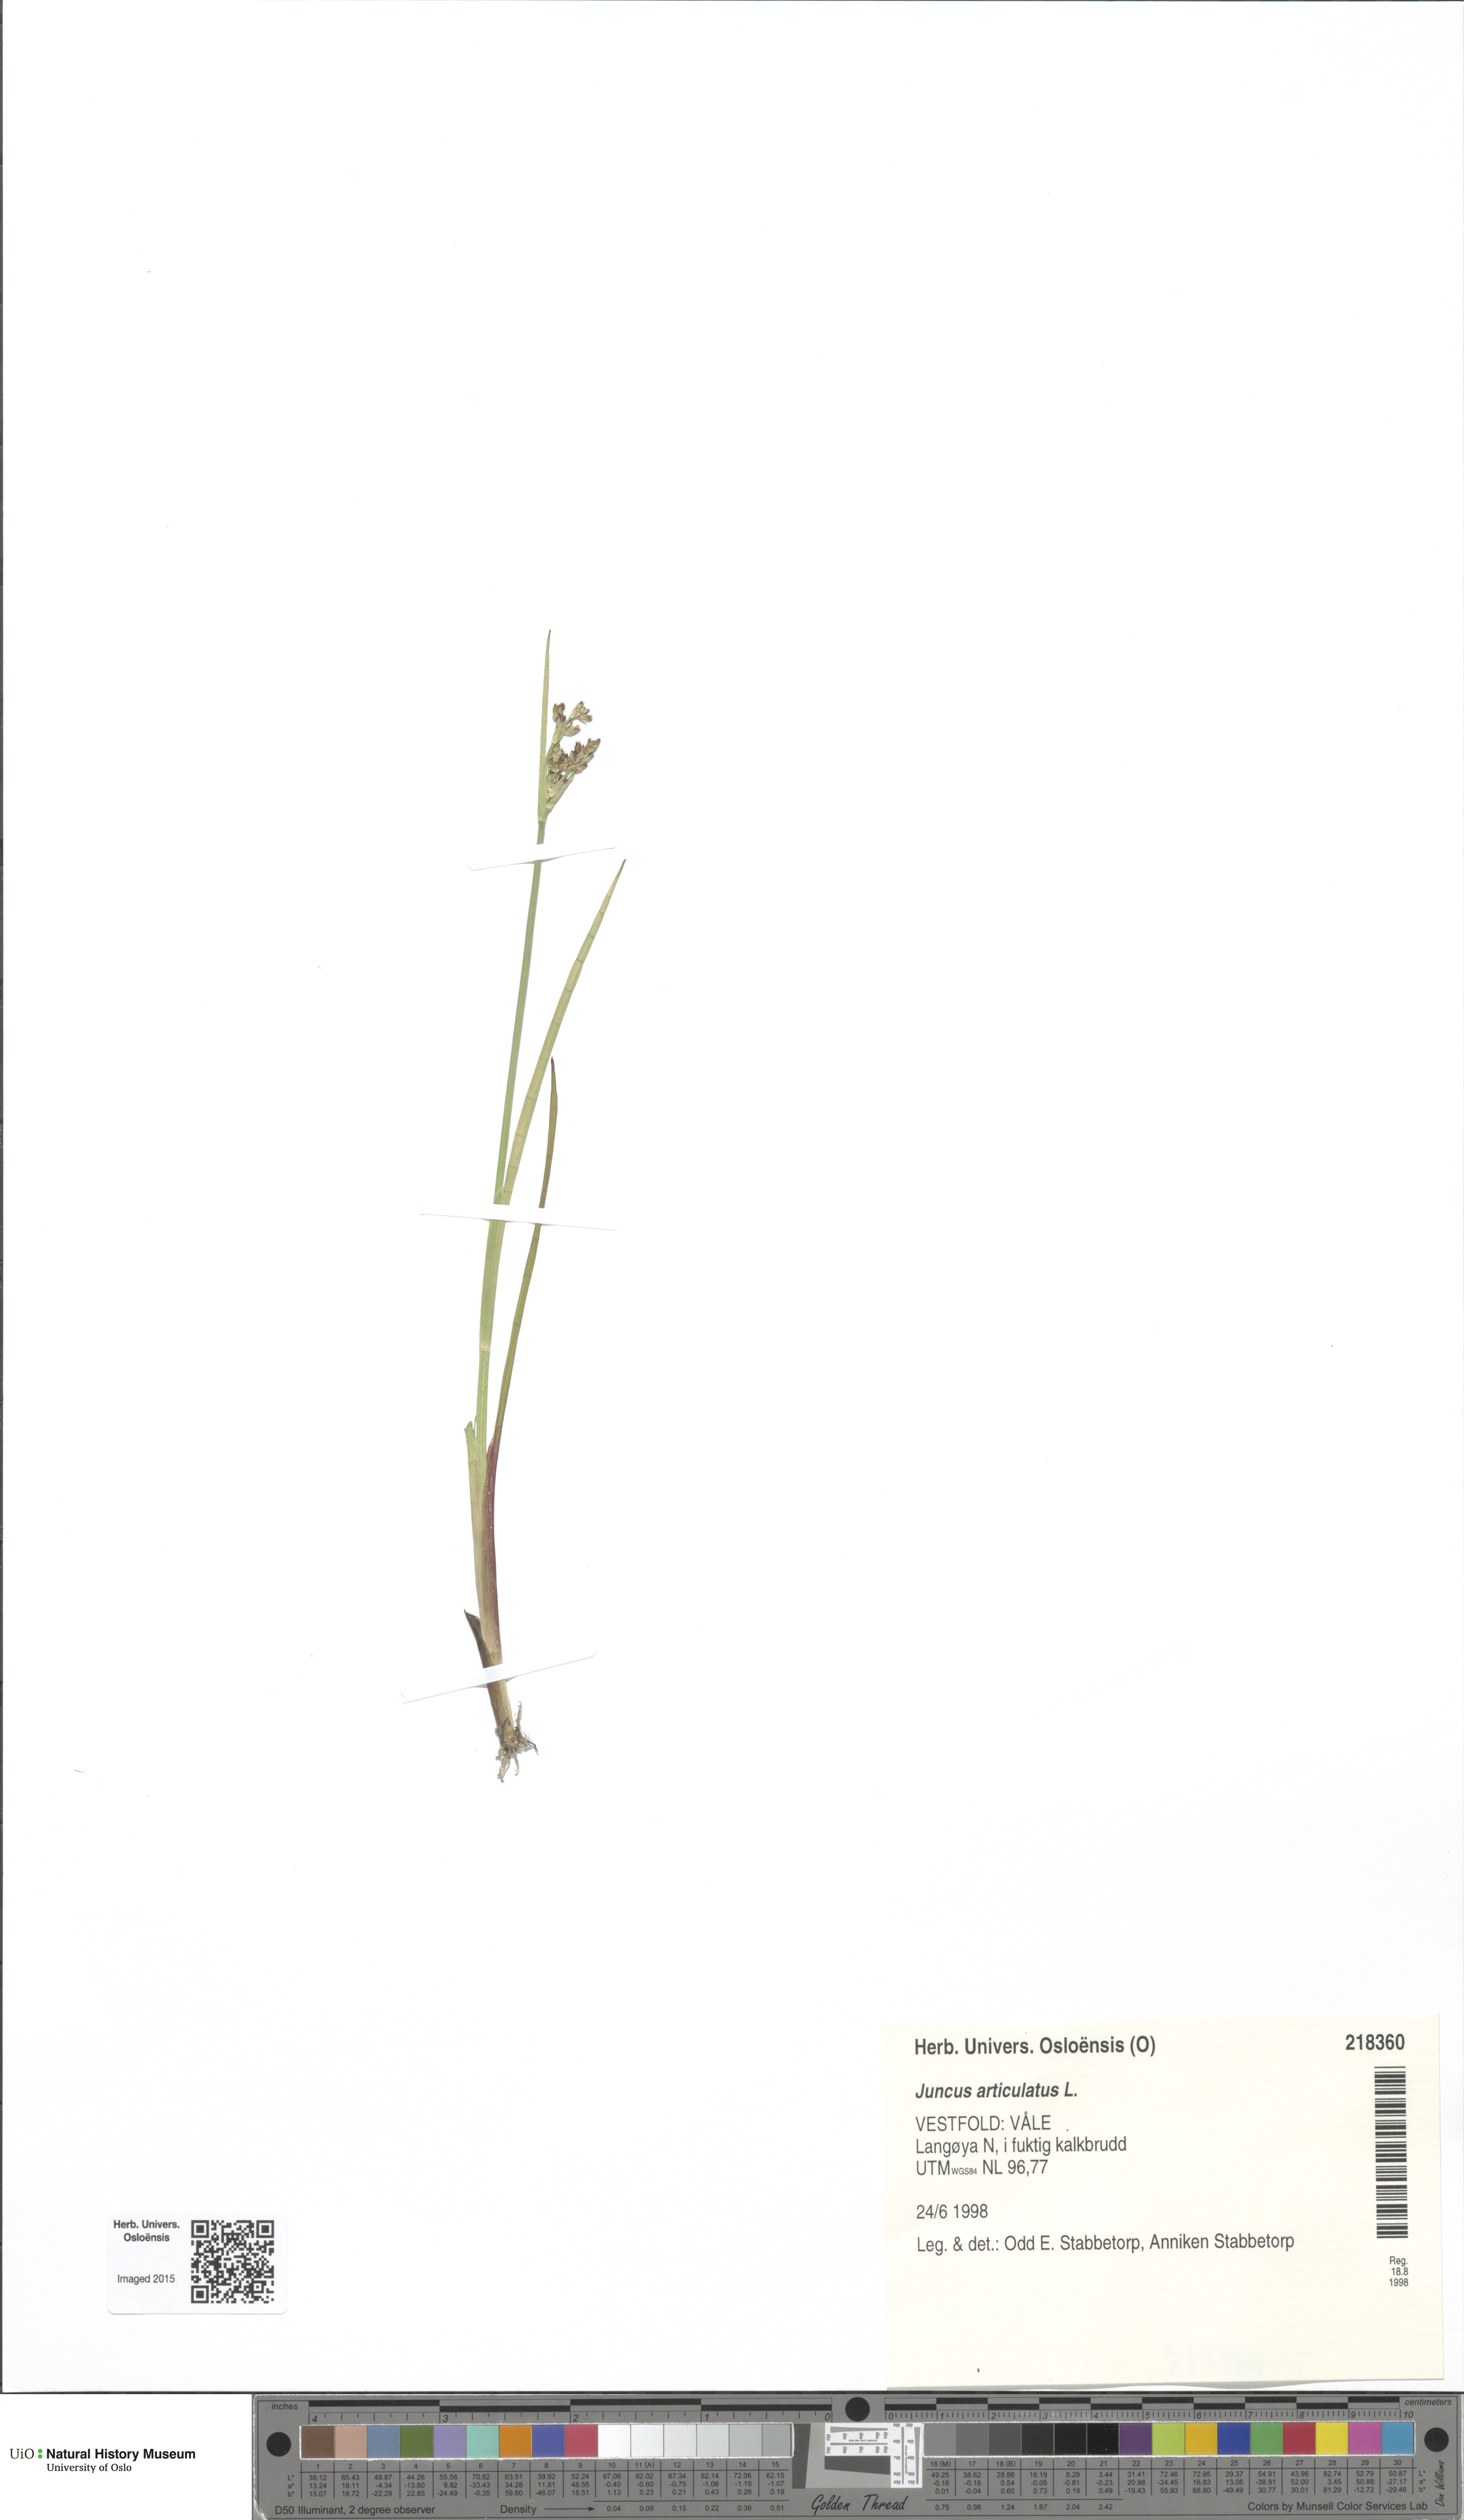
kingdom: Plantae
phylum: Tracheophyta
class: Liliopsida
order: Poales
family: Juncaceae
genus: Juncus
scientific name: Juncus articulatus
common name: Jointed rush
